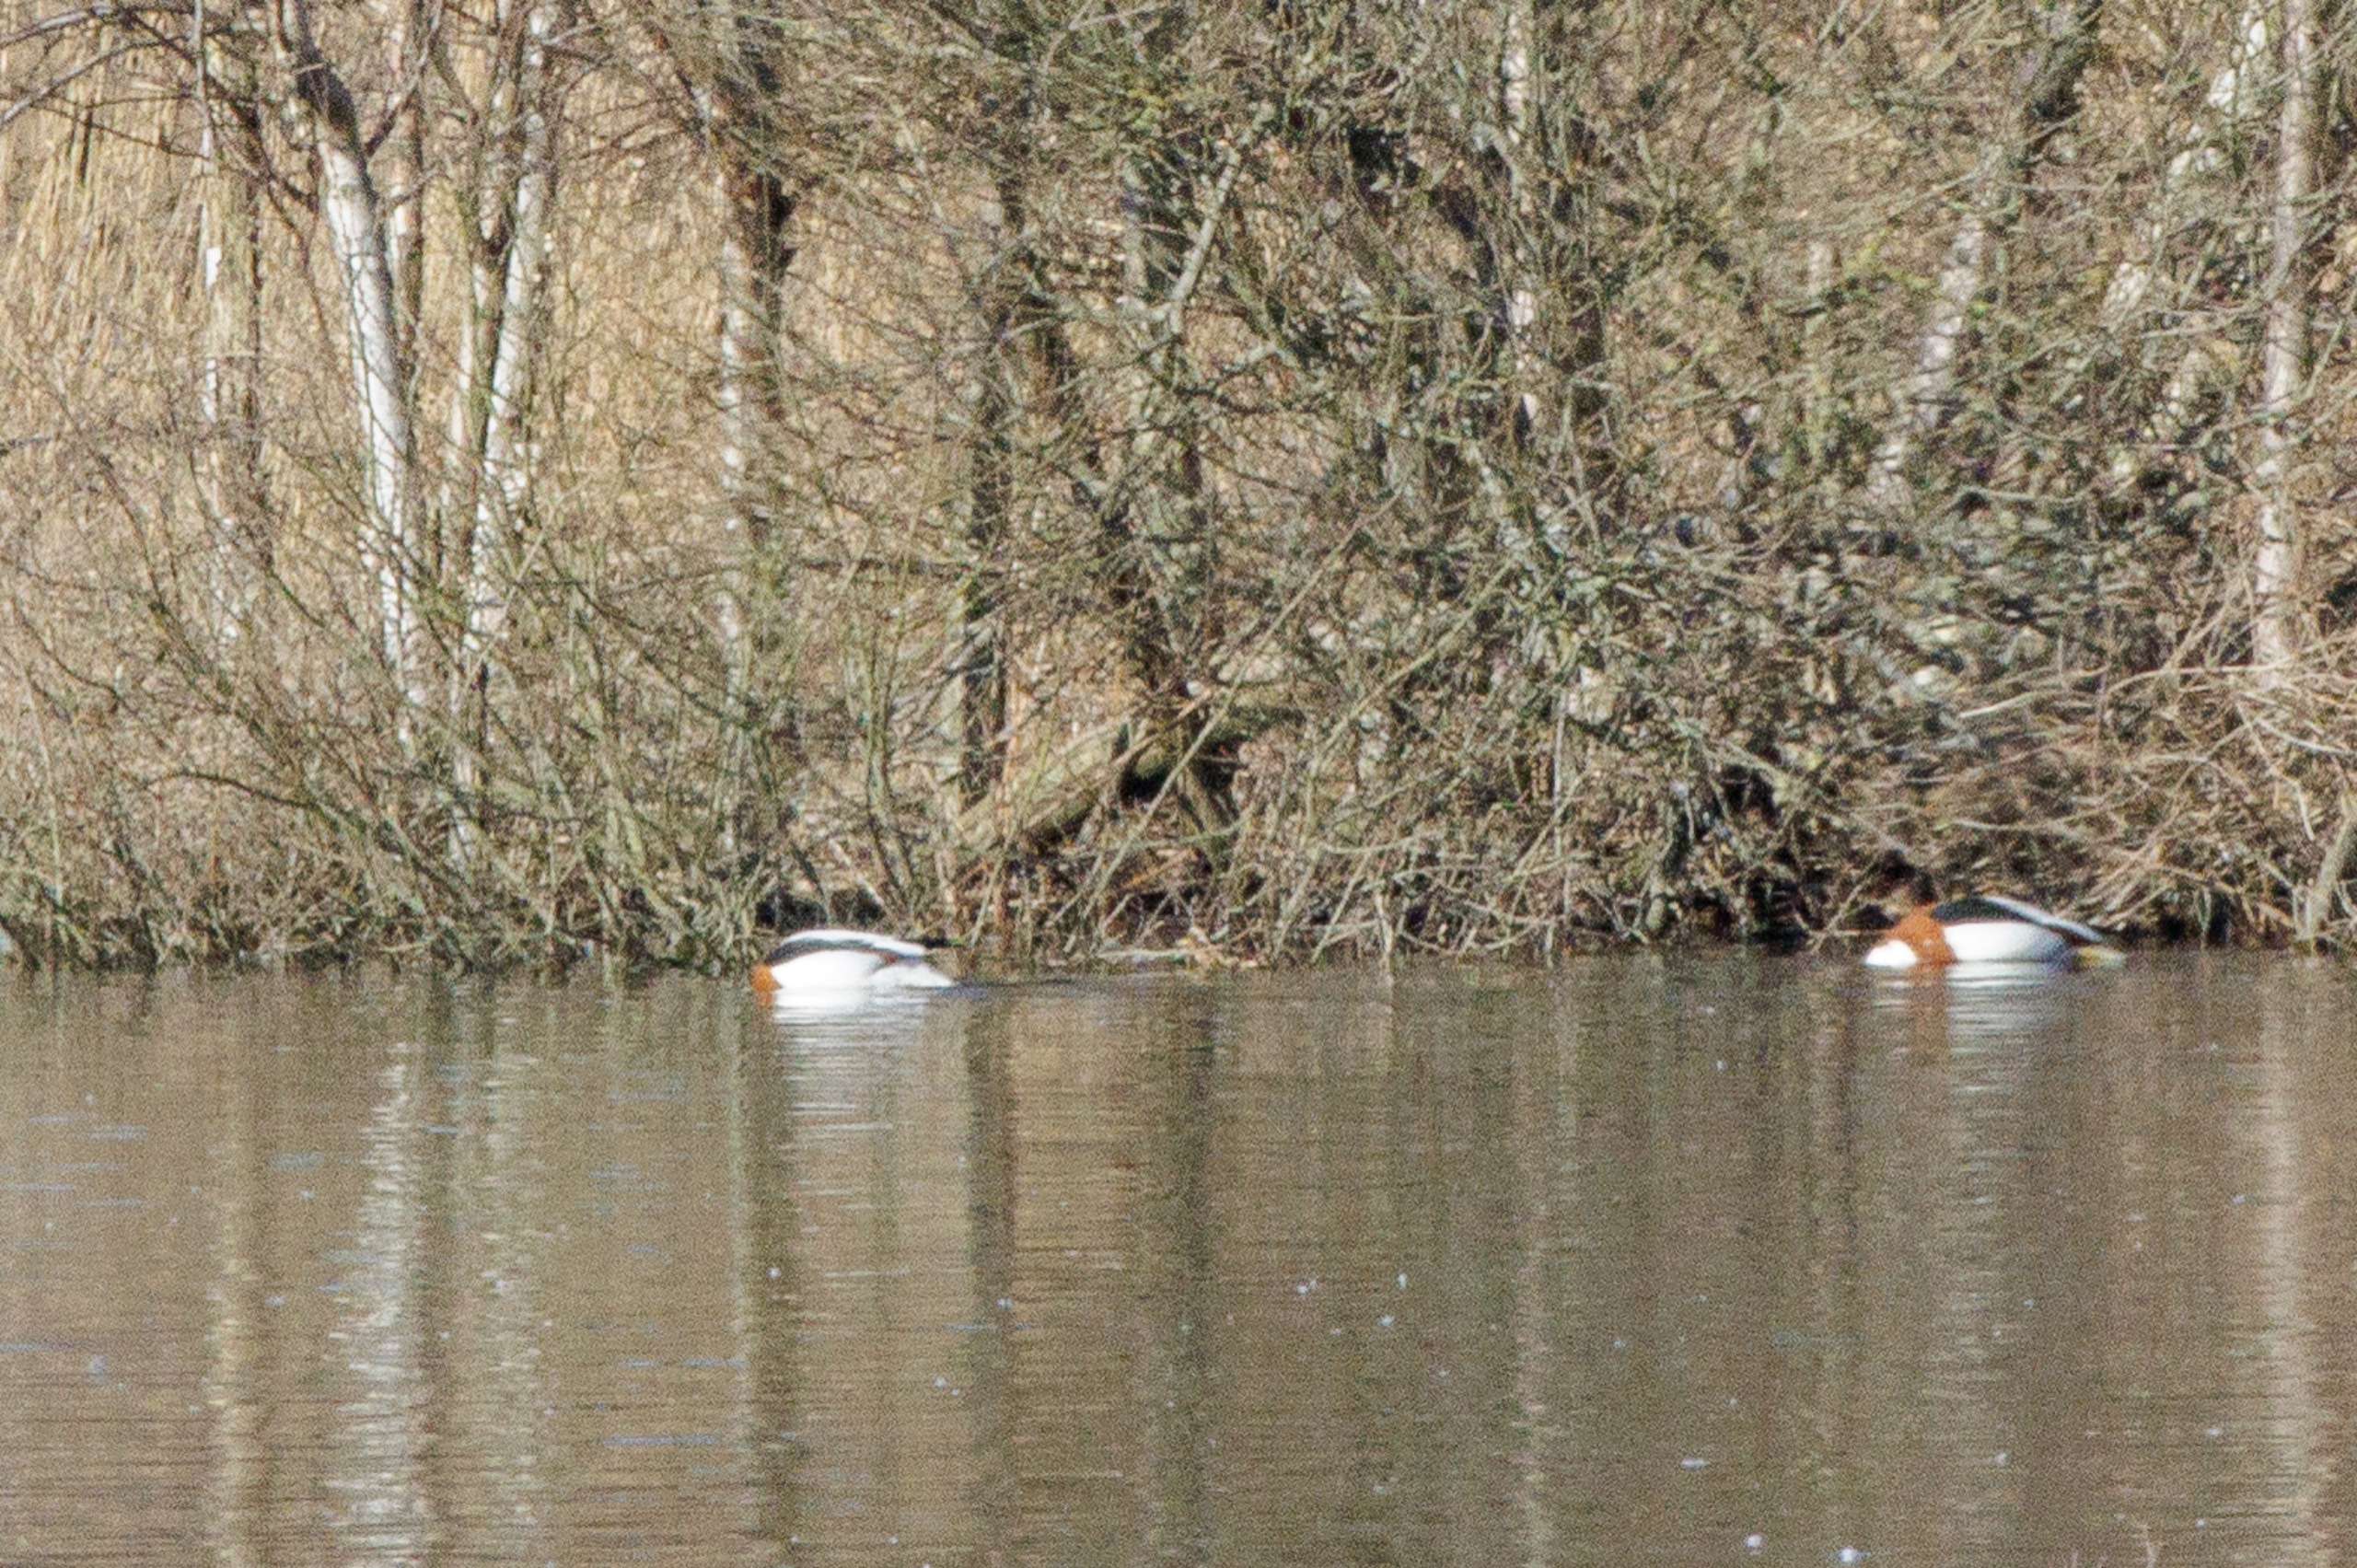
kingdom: Animalia
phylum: Chordata
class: Aves
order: Anseriformes
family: Anatidae
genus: Tadorna
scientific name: Tadorna tadorna
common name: Gravand
